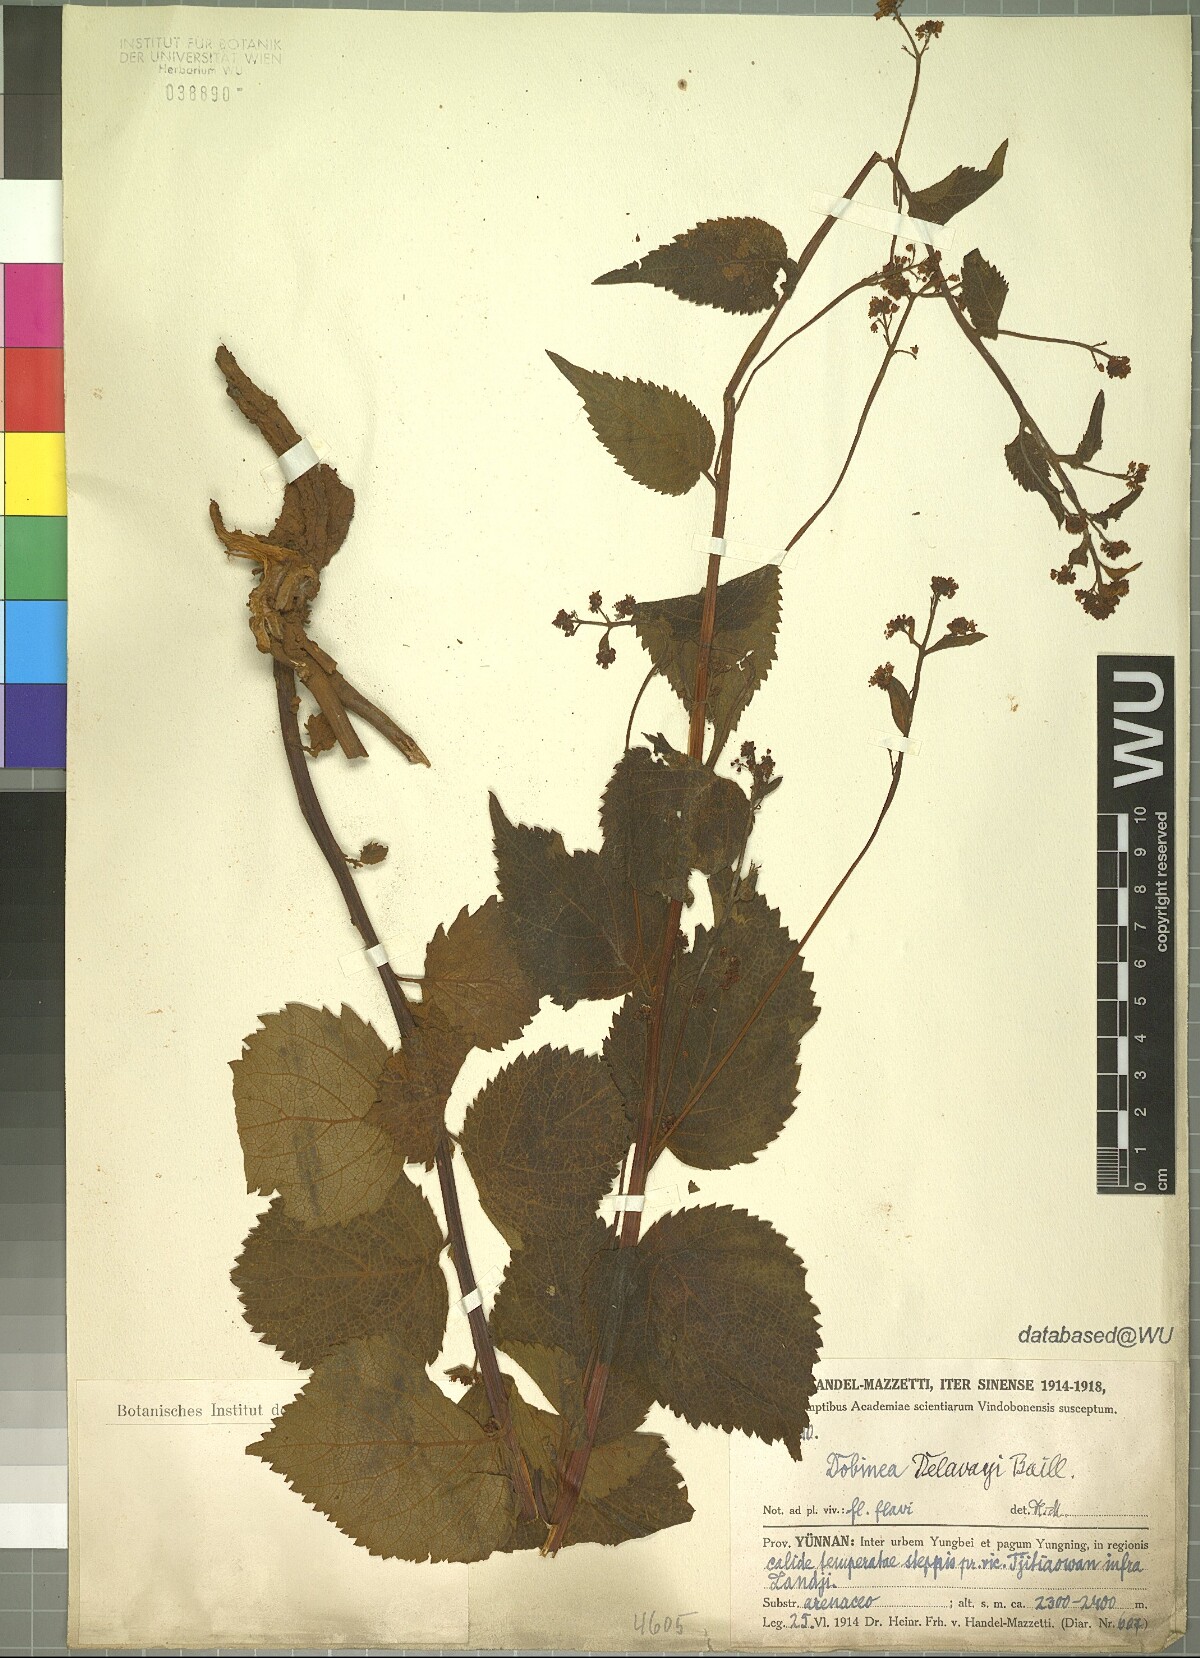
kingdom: Plantae
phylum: Tracheophyta
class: Magnoliopsida
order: Sapindales
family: Anacardiaceae
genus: Dobinea
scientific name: Dobinea delavayi
